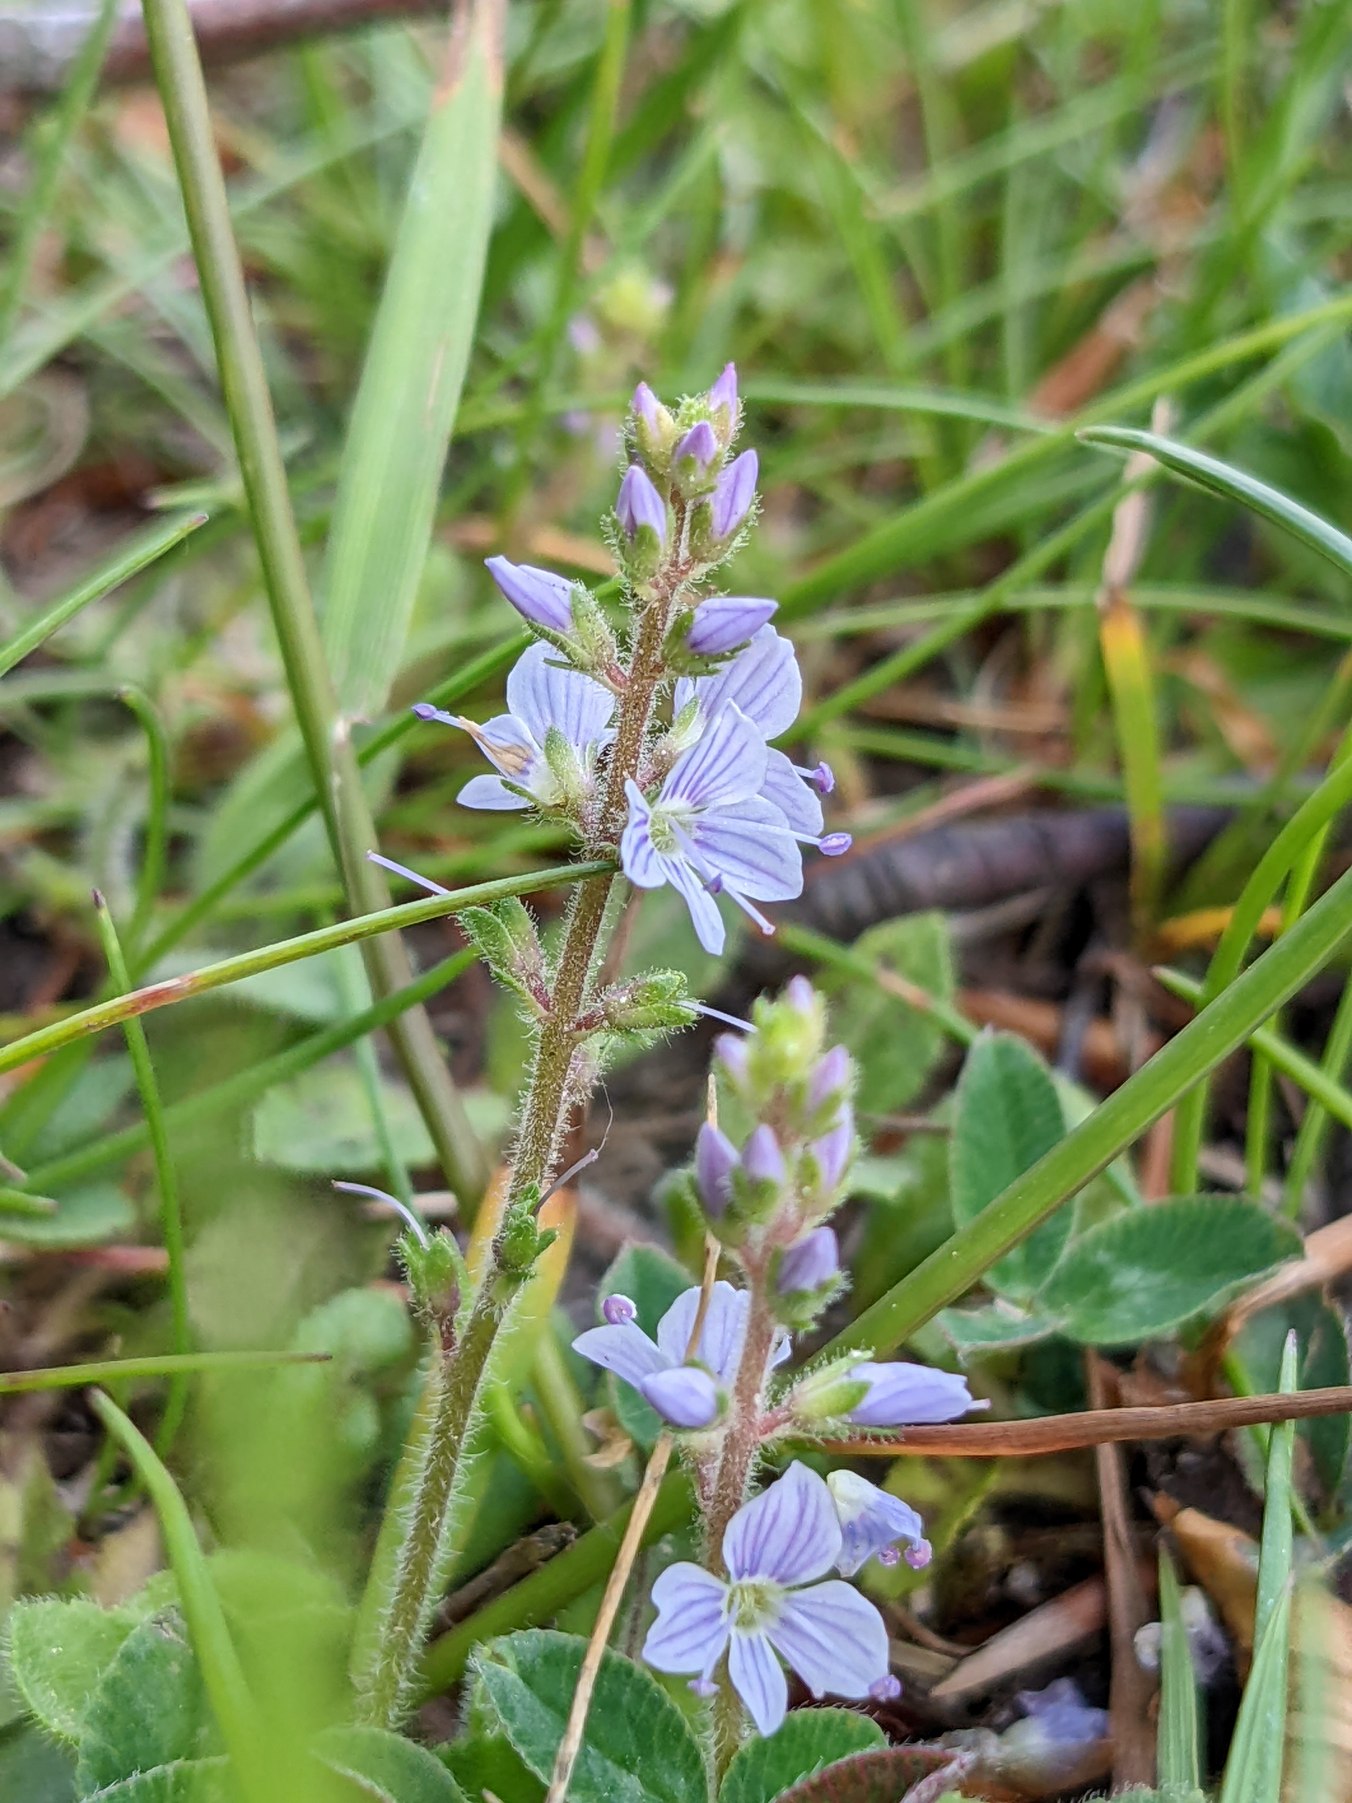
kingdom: Plantae
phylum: Tracheophyta
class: Magnoliopsida
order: Lamiales
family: Plantaginaceae
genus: Veronica
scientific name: Veronica officinalis
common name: Læge-ærenpris
